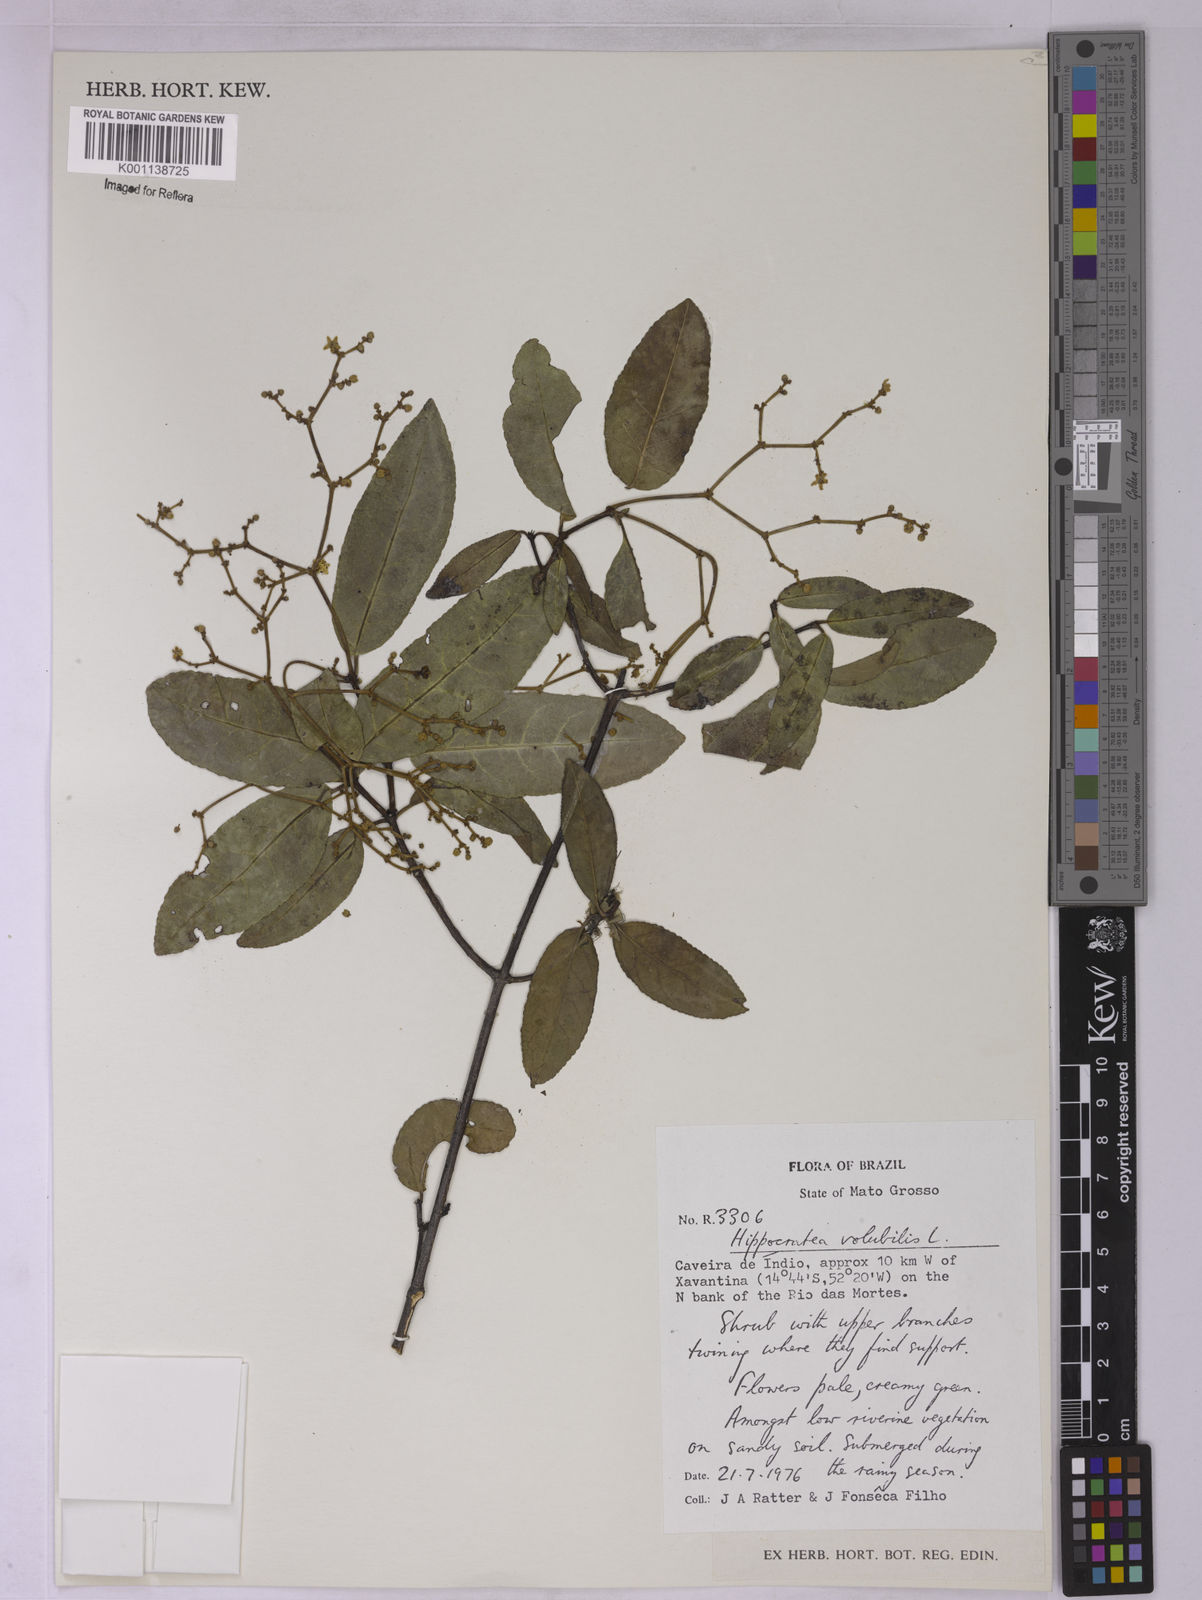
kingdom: Plantae
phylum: Tracheophyta
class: Magnoliopsida
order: Celastrales
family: Celastraceae
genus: Hippocratea
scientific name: Hippocratea volubilis
